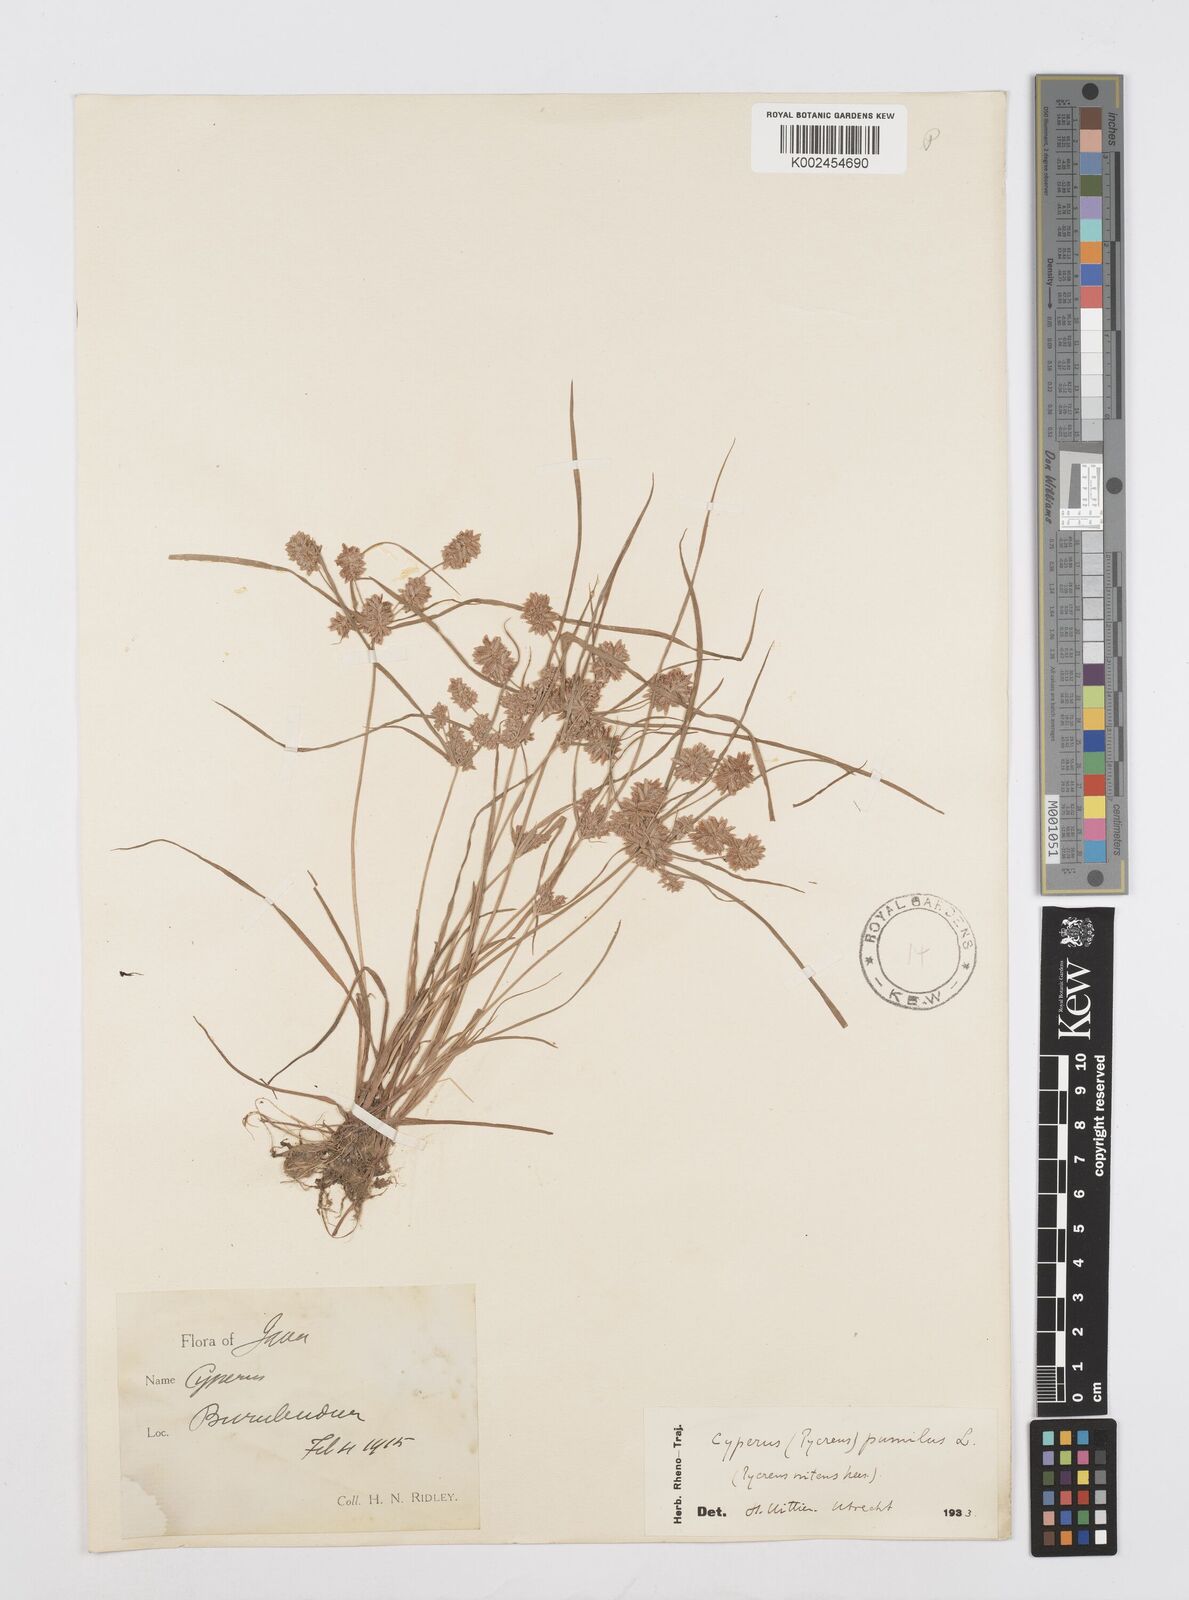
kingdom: Plantae
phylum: Tracheophyta
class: Liliopsida
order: Poales
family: Cyperaceae
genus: Cyperus
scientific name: Cyperus pumilus
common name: Low flatsedge
